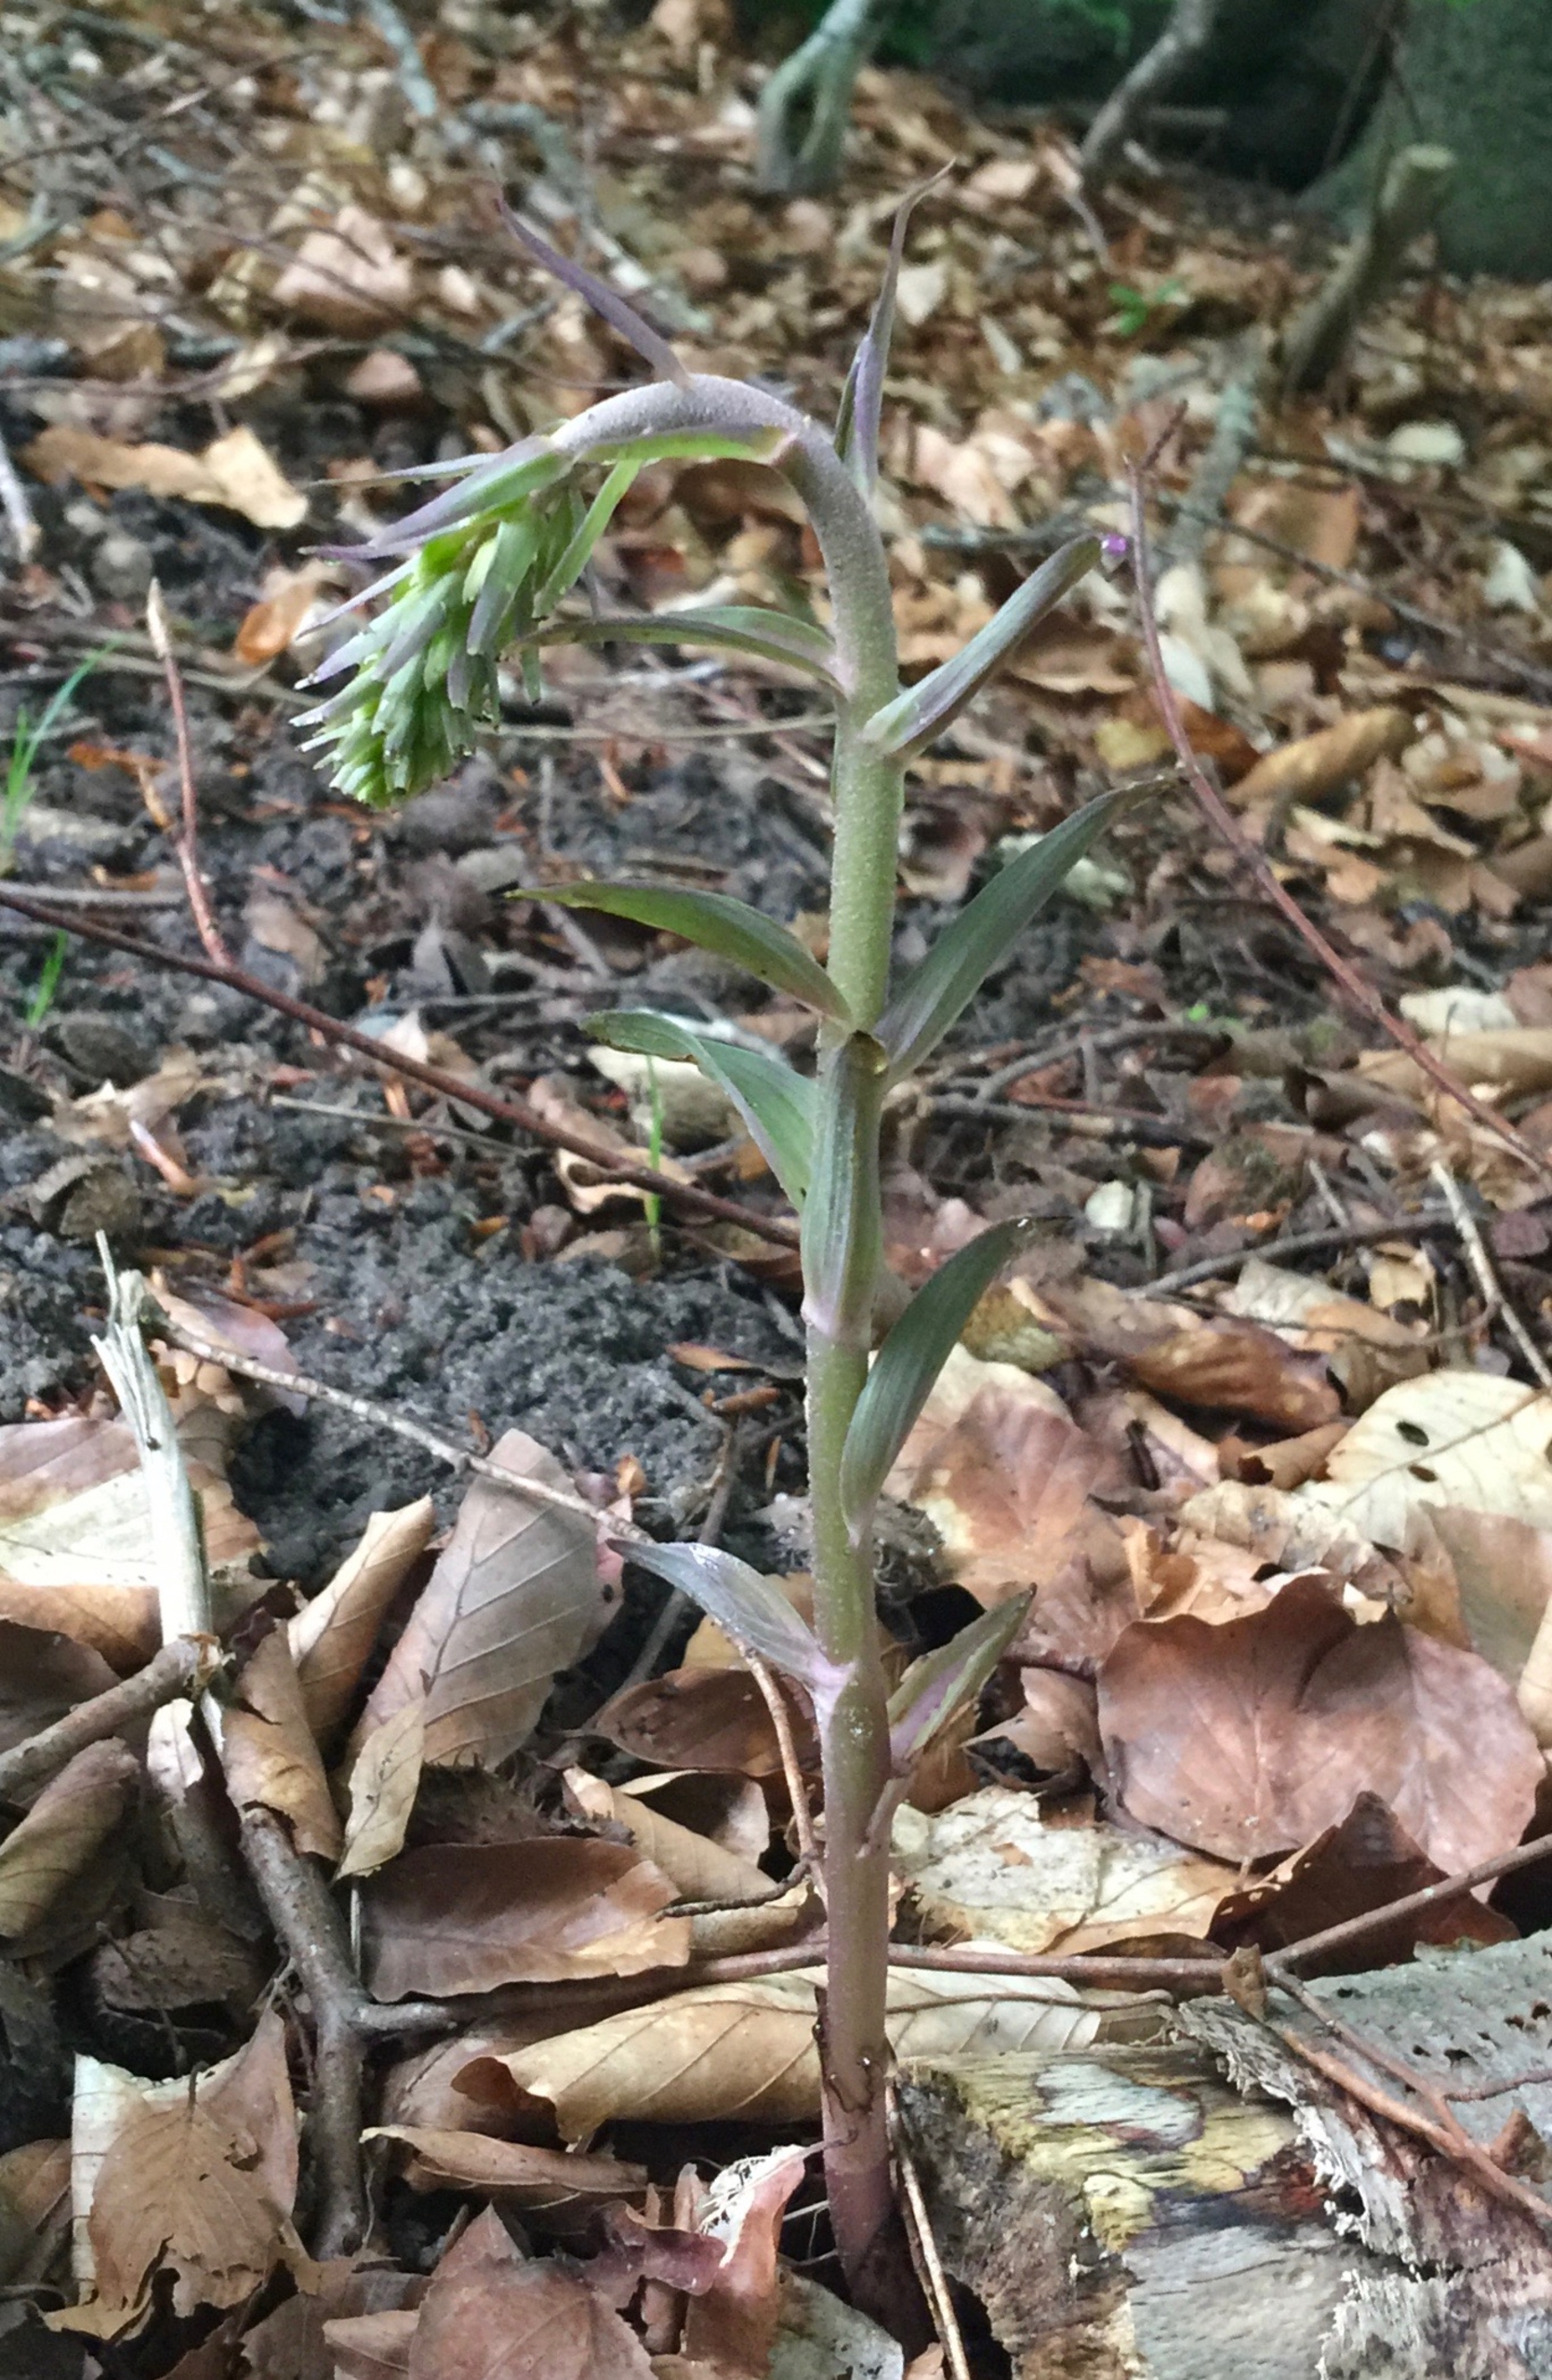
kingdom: Plantae
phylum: Tracheophyta
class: Liliopsida
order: Asparagales
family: Orchidaceae
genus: Epipactis
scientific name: Epipactis purpurata
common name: Tætblomstret hullæbe
